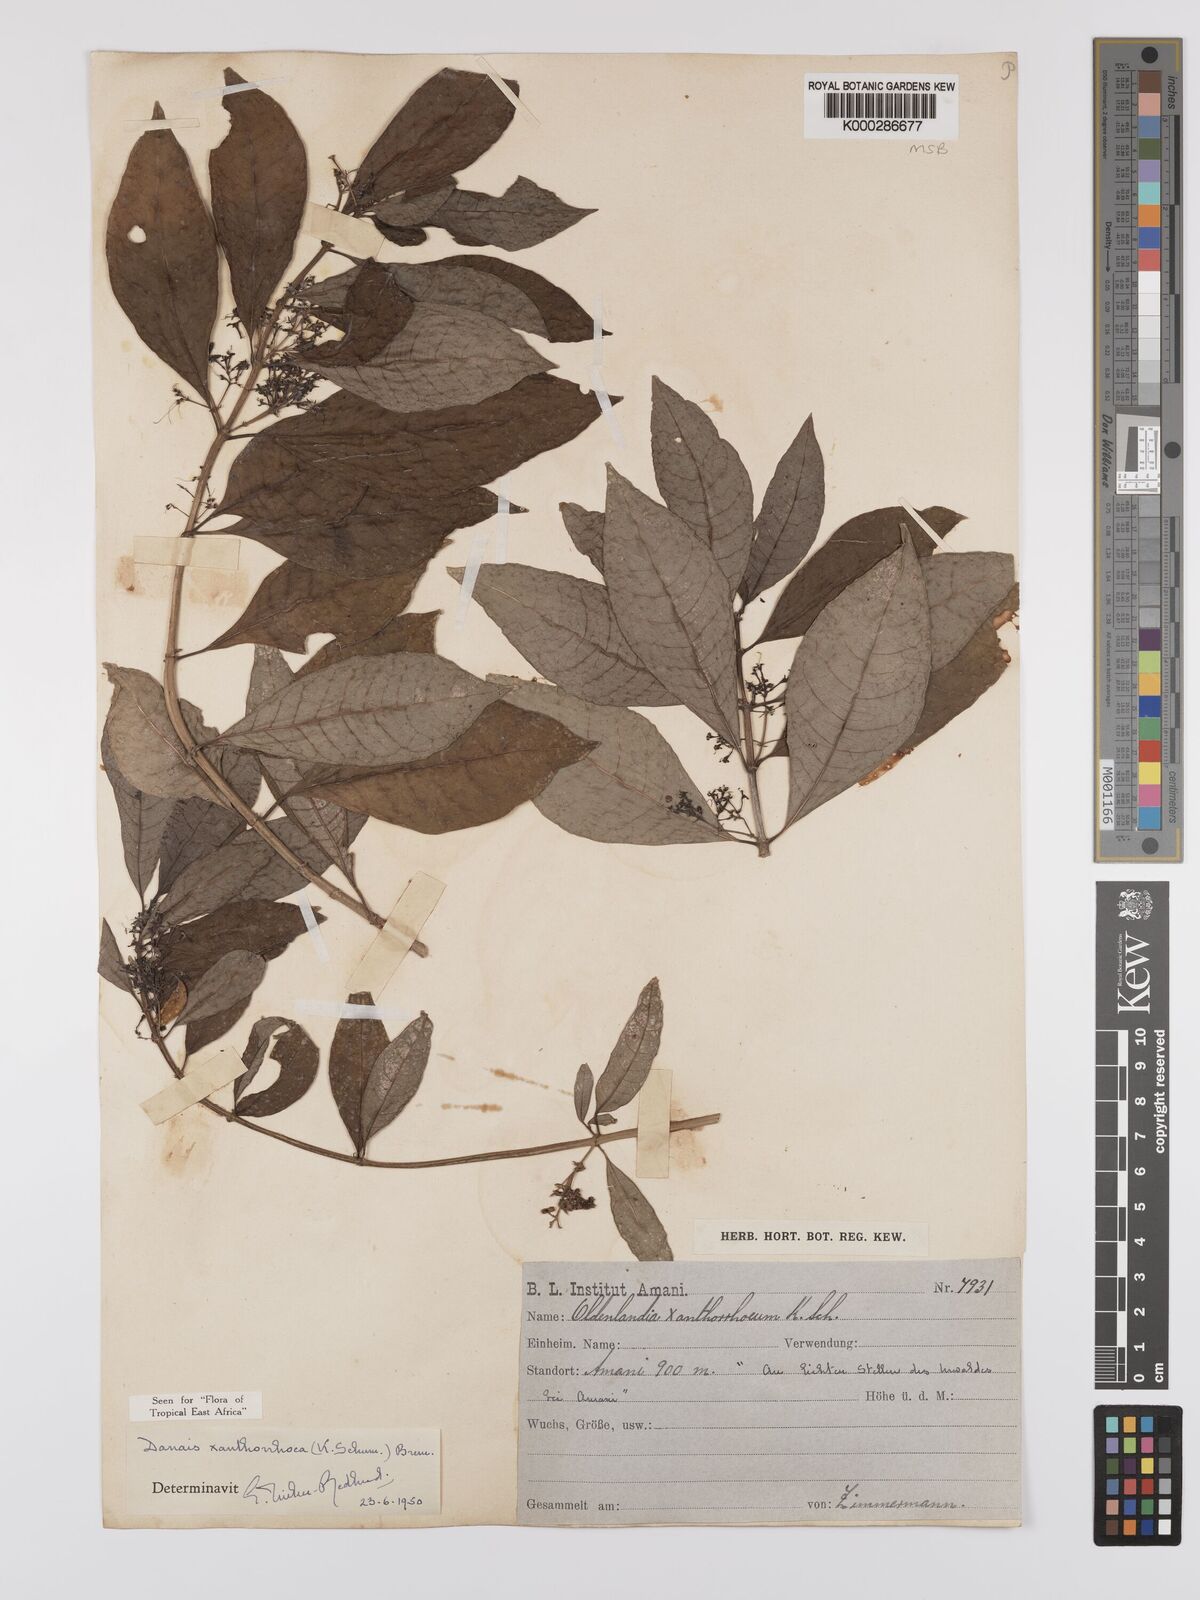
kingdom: Plantae
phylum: Tracheophyta
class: Magnoliopsida
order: Gentianales
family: Rubiaceae
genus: Danais
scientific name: Danais xanthorrhoea
